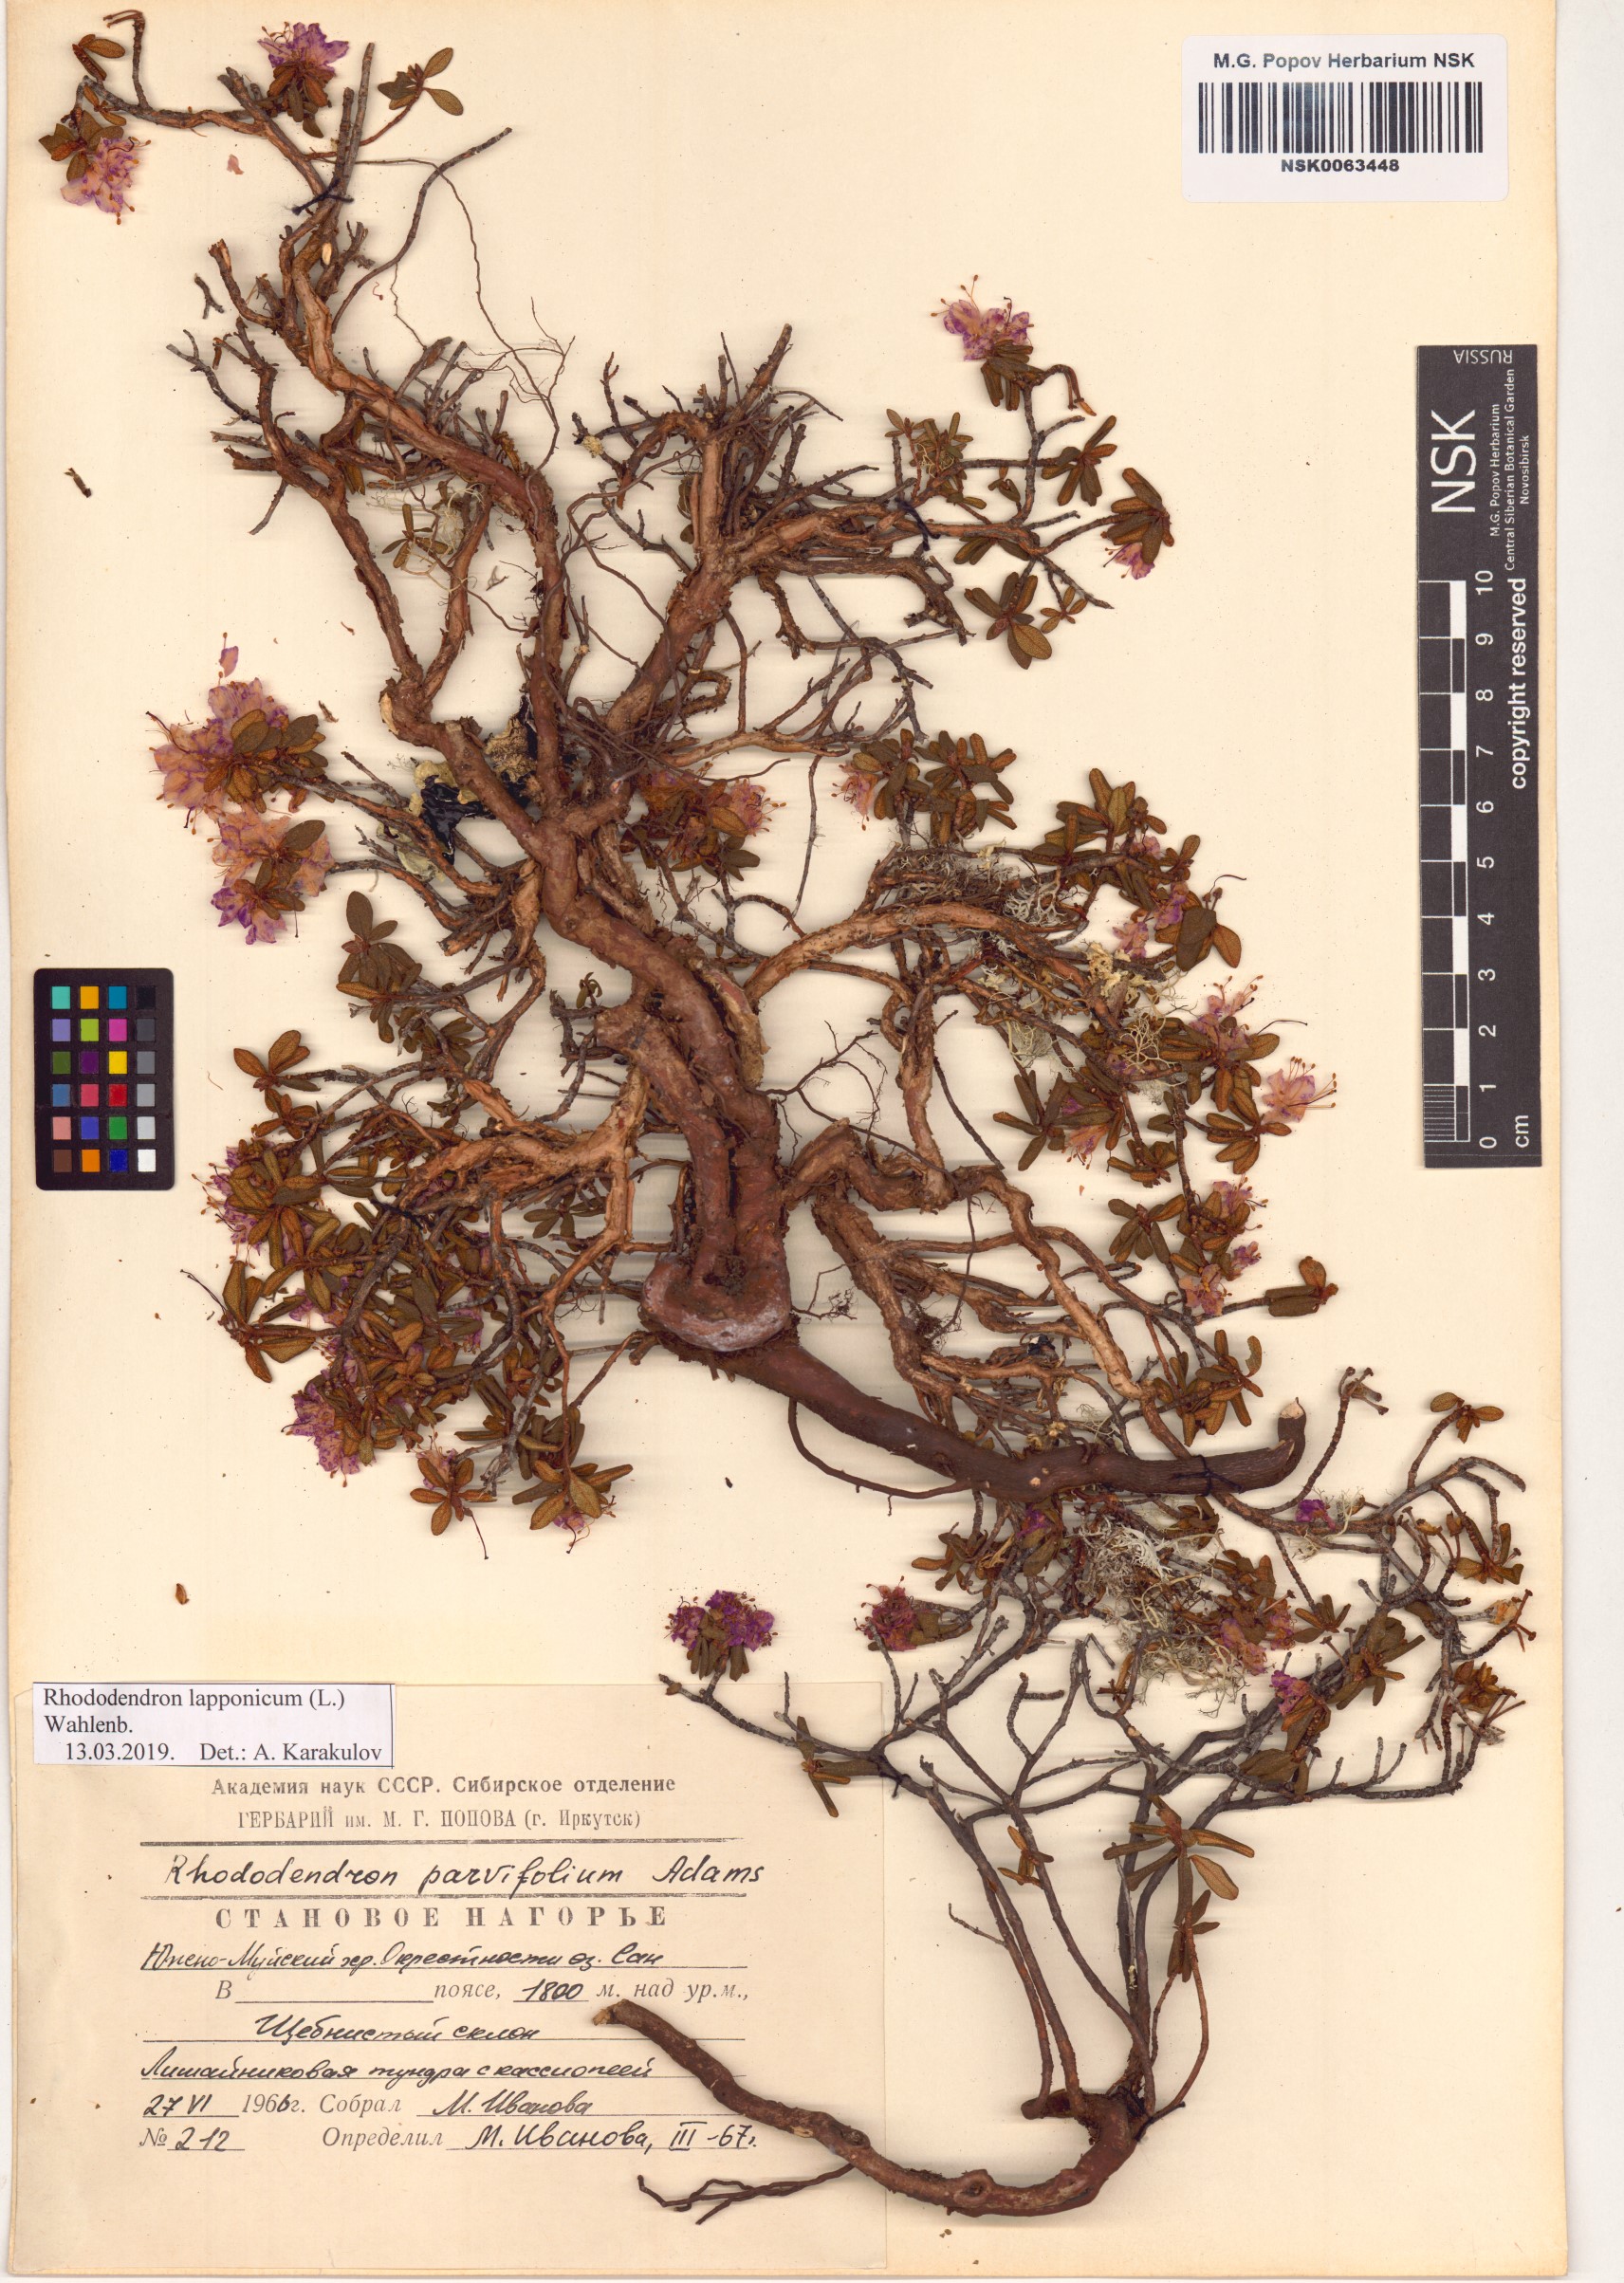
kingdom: Plantae
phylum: Tracheophyta
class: Magnoliopsida
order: Ericales
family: Ericaceae
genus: Rhododendron
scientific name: Rhododendron lapponicum
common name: Lapland rhododendron
